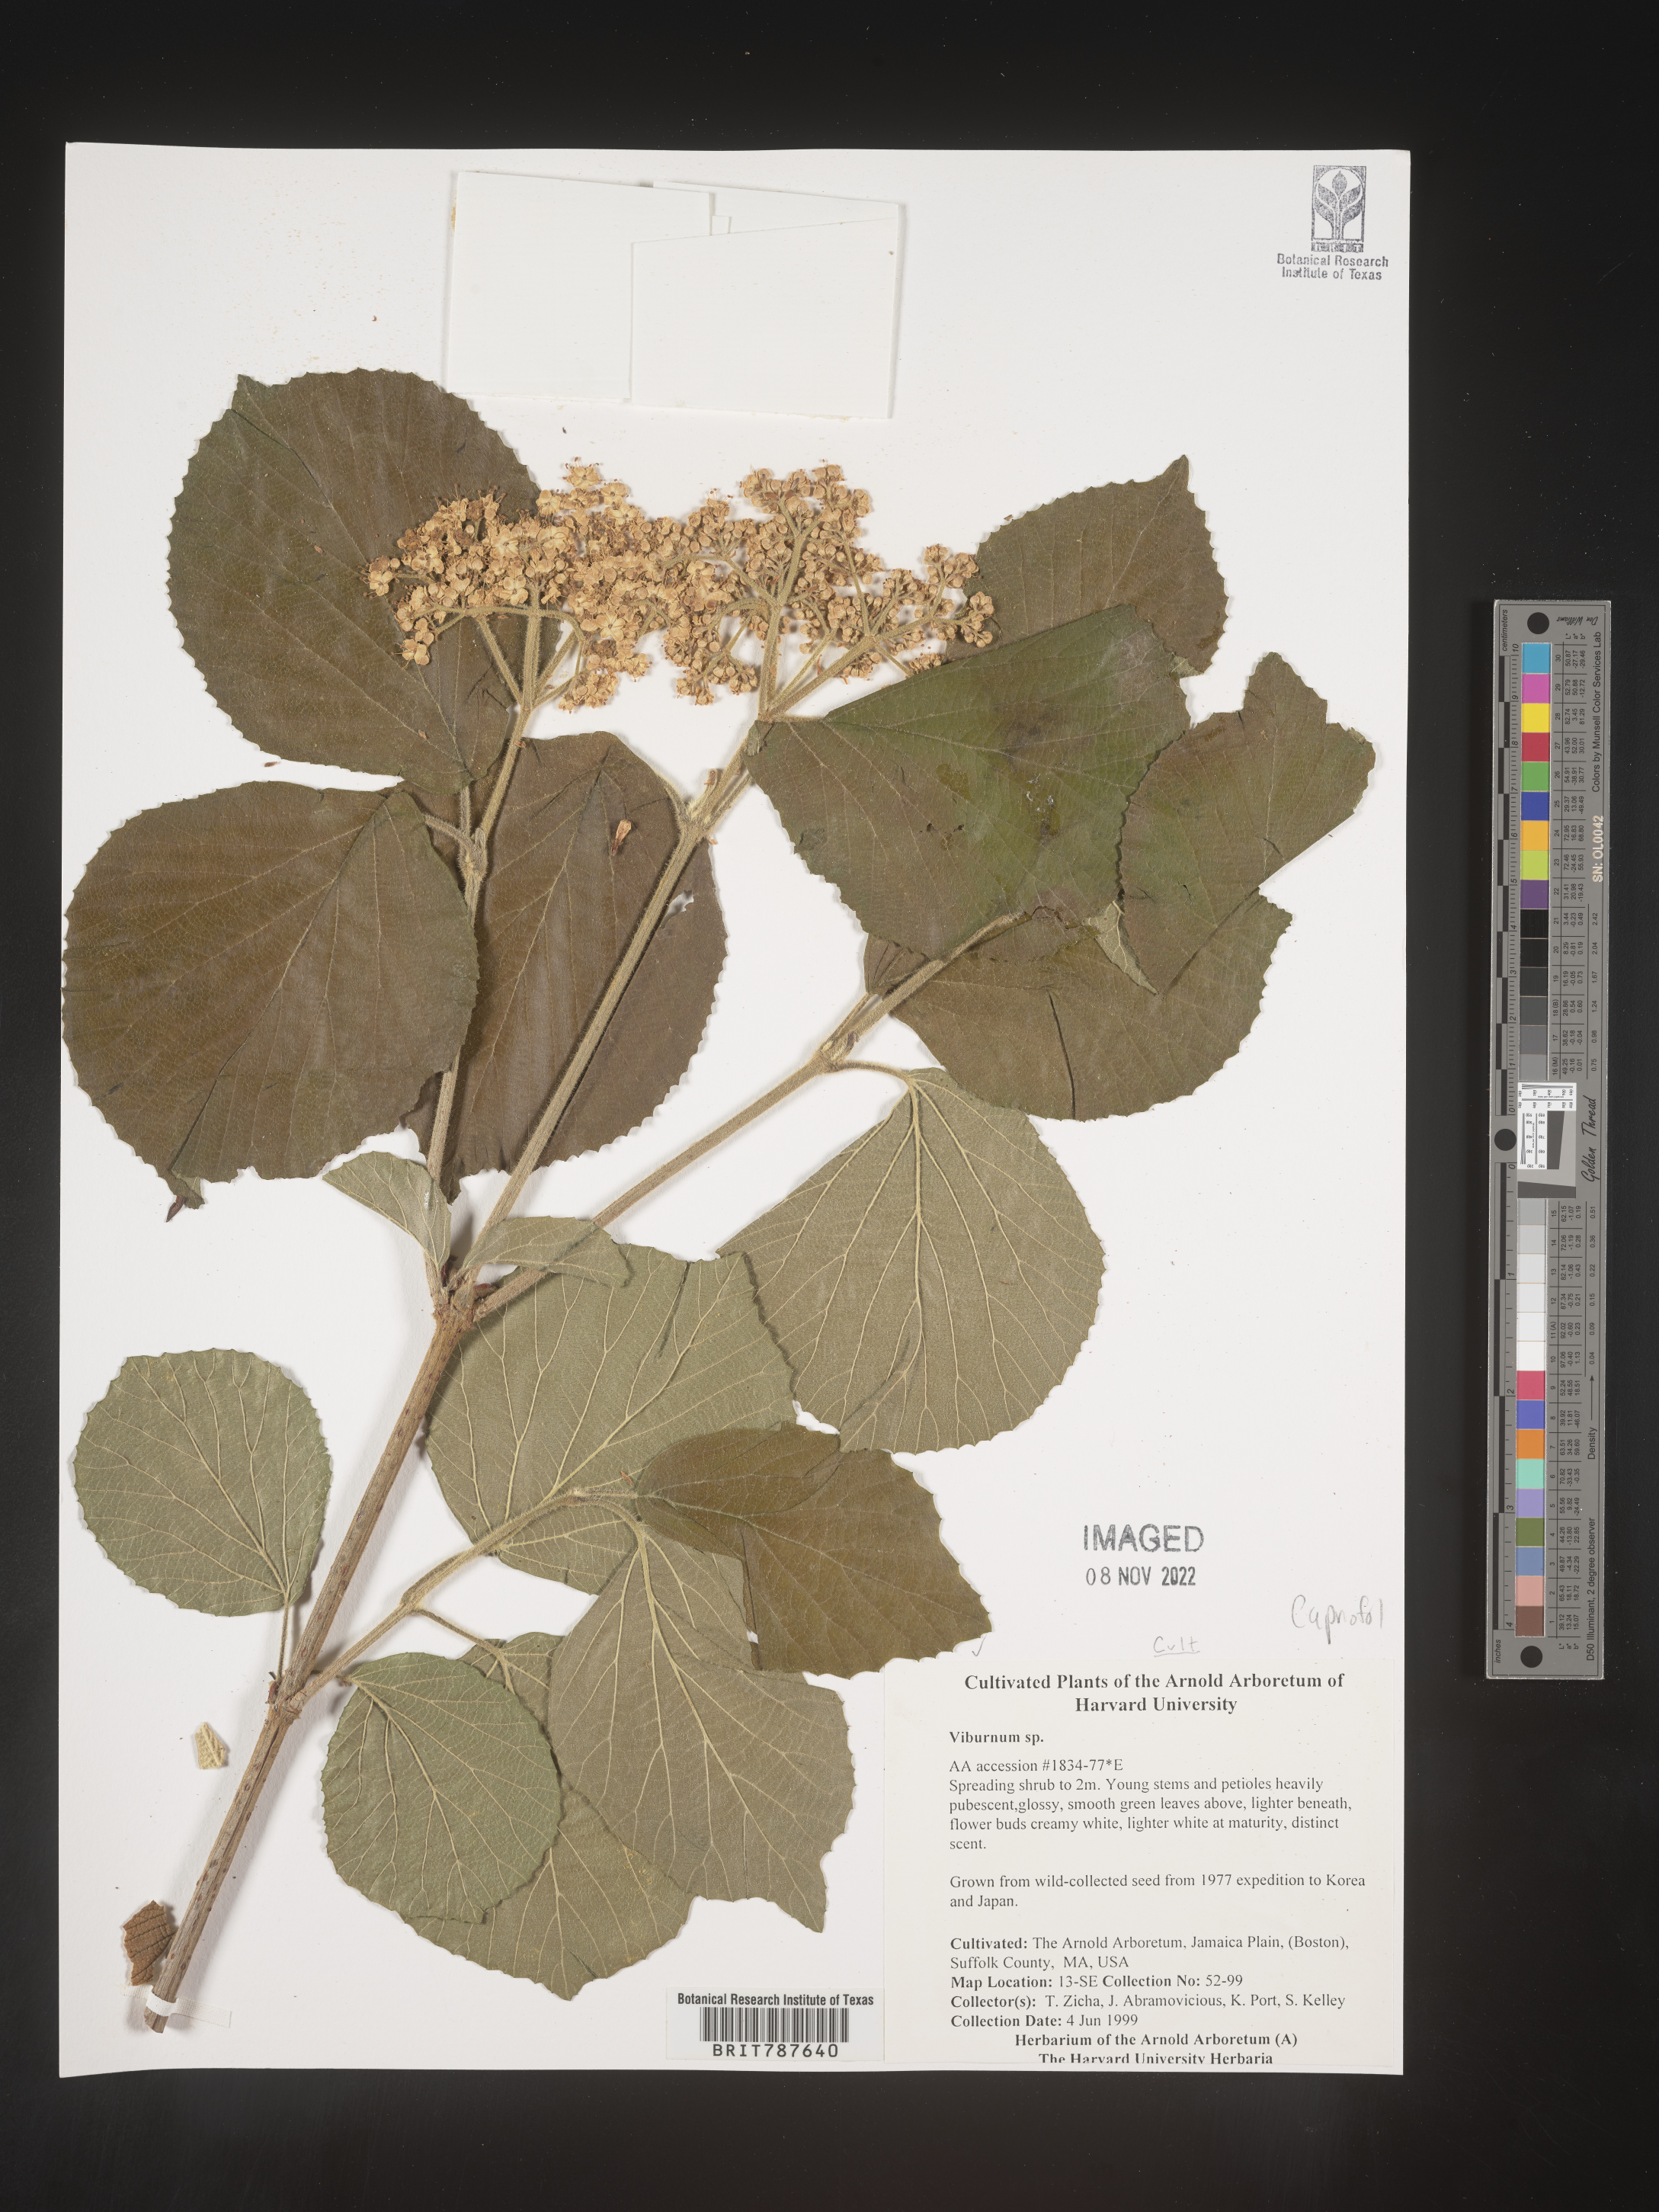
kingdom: Plantae
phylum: Tracheophyta
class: Magnoliopsida
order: Dipsacales
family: Viburnaceae
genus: Viburnum
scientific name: Viburnum
